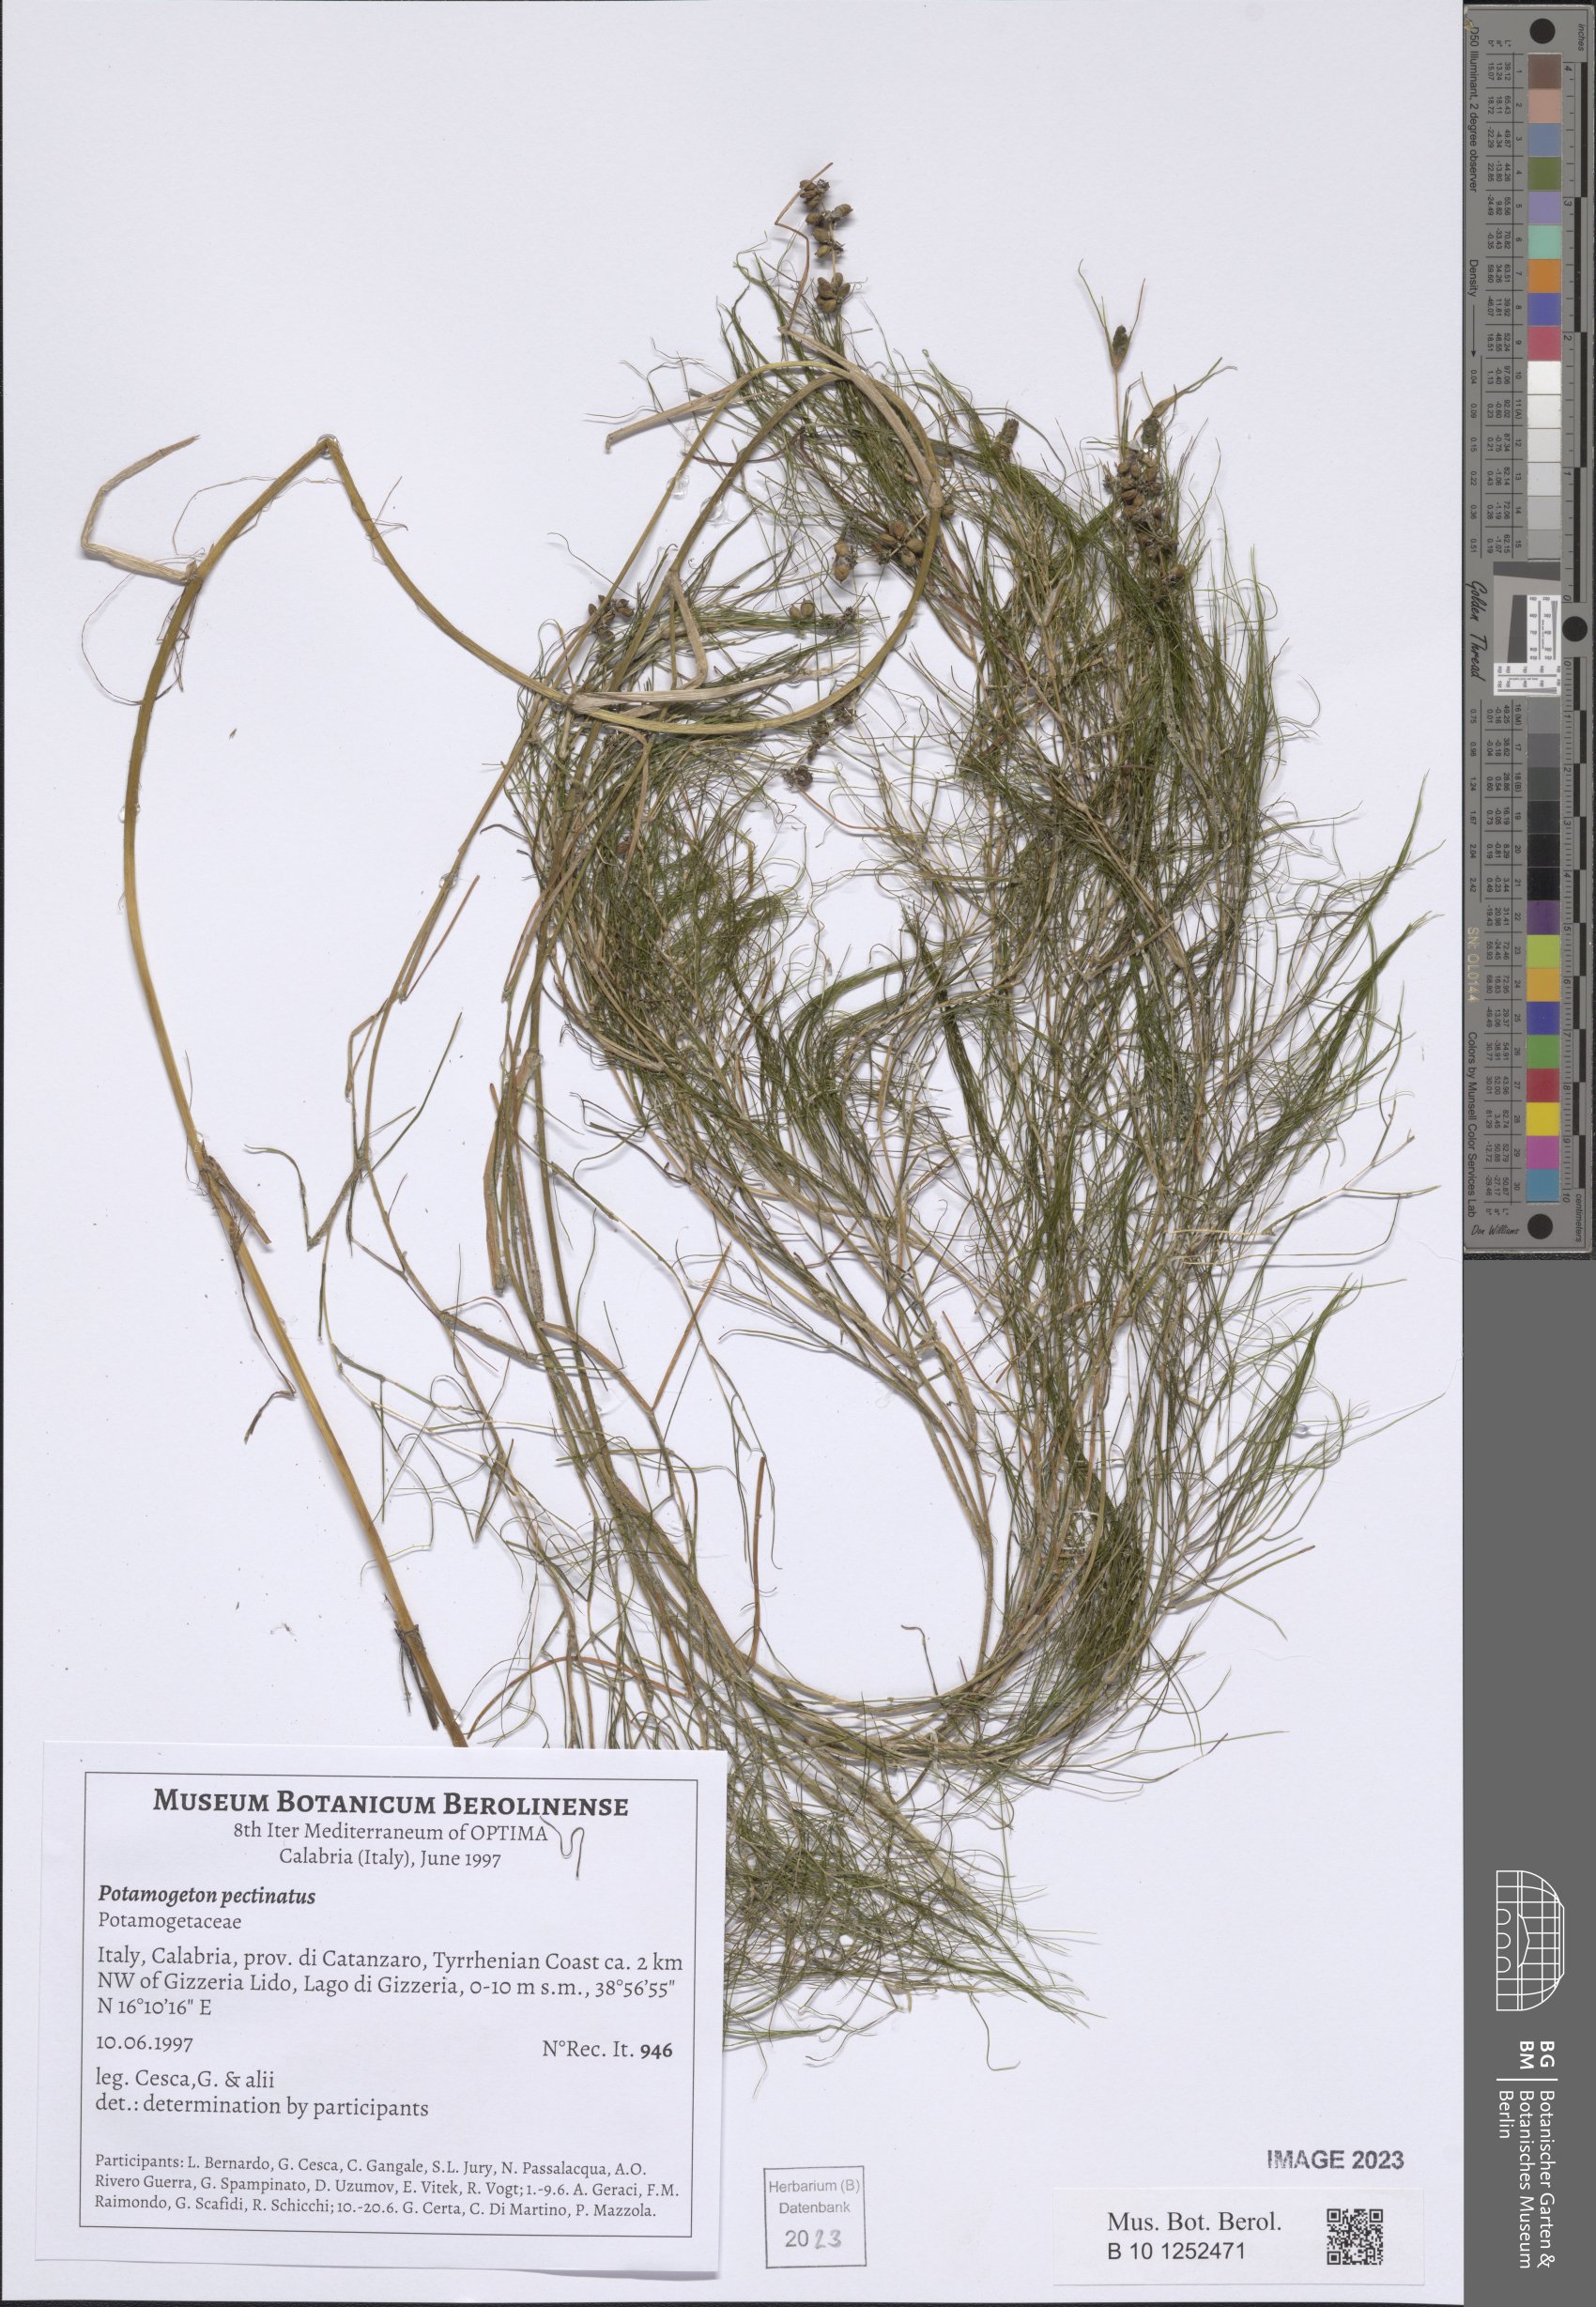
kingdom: Plantae
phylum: Tracheophyta
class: Liliopsida
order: Alismatales
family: Potamogetonaceae
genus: Stuckenia
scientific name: Stuckenia pectinata
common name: Sago pondweed
